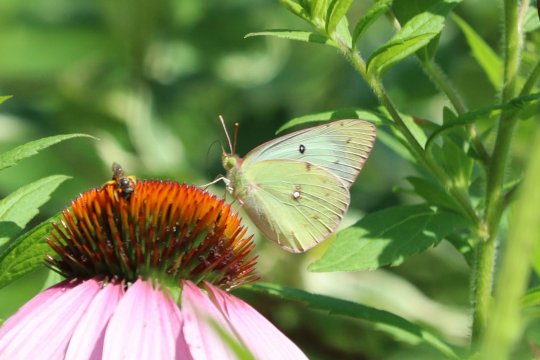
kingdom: Animalia
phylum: Arthropoda
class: Insecta
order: Lepidoptera
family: Pieridae
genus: Colias
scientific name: Colias philodice
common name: Clouded Sulphur
